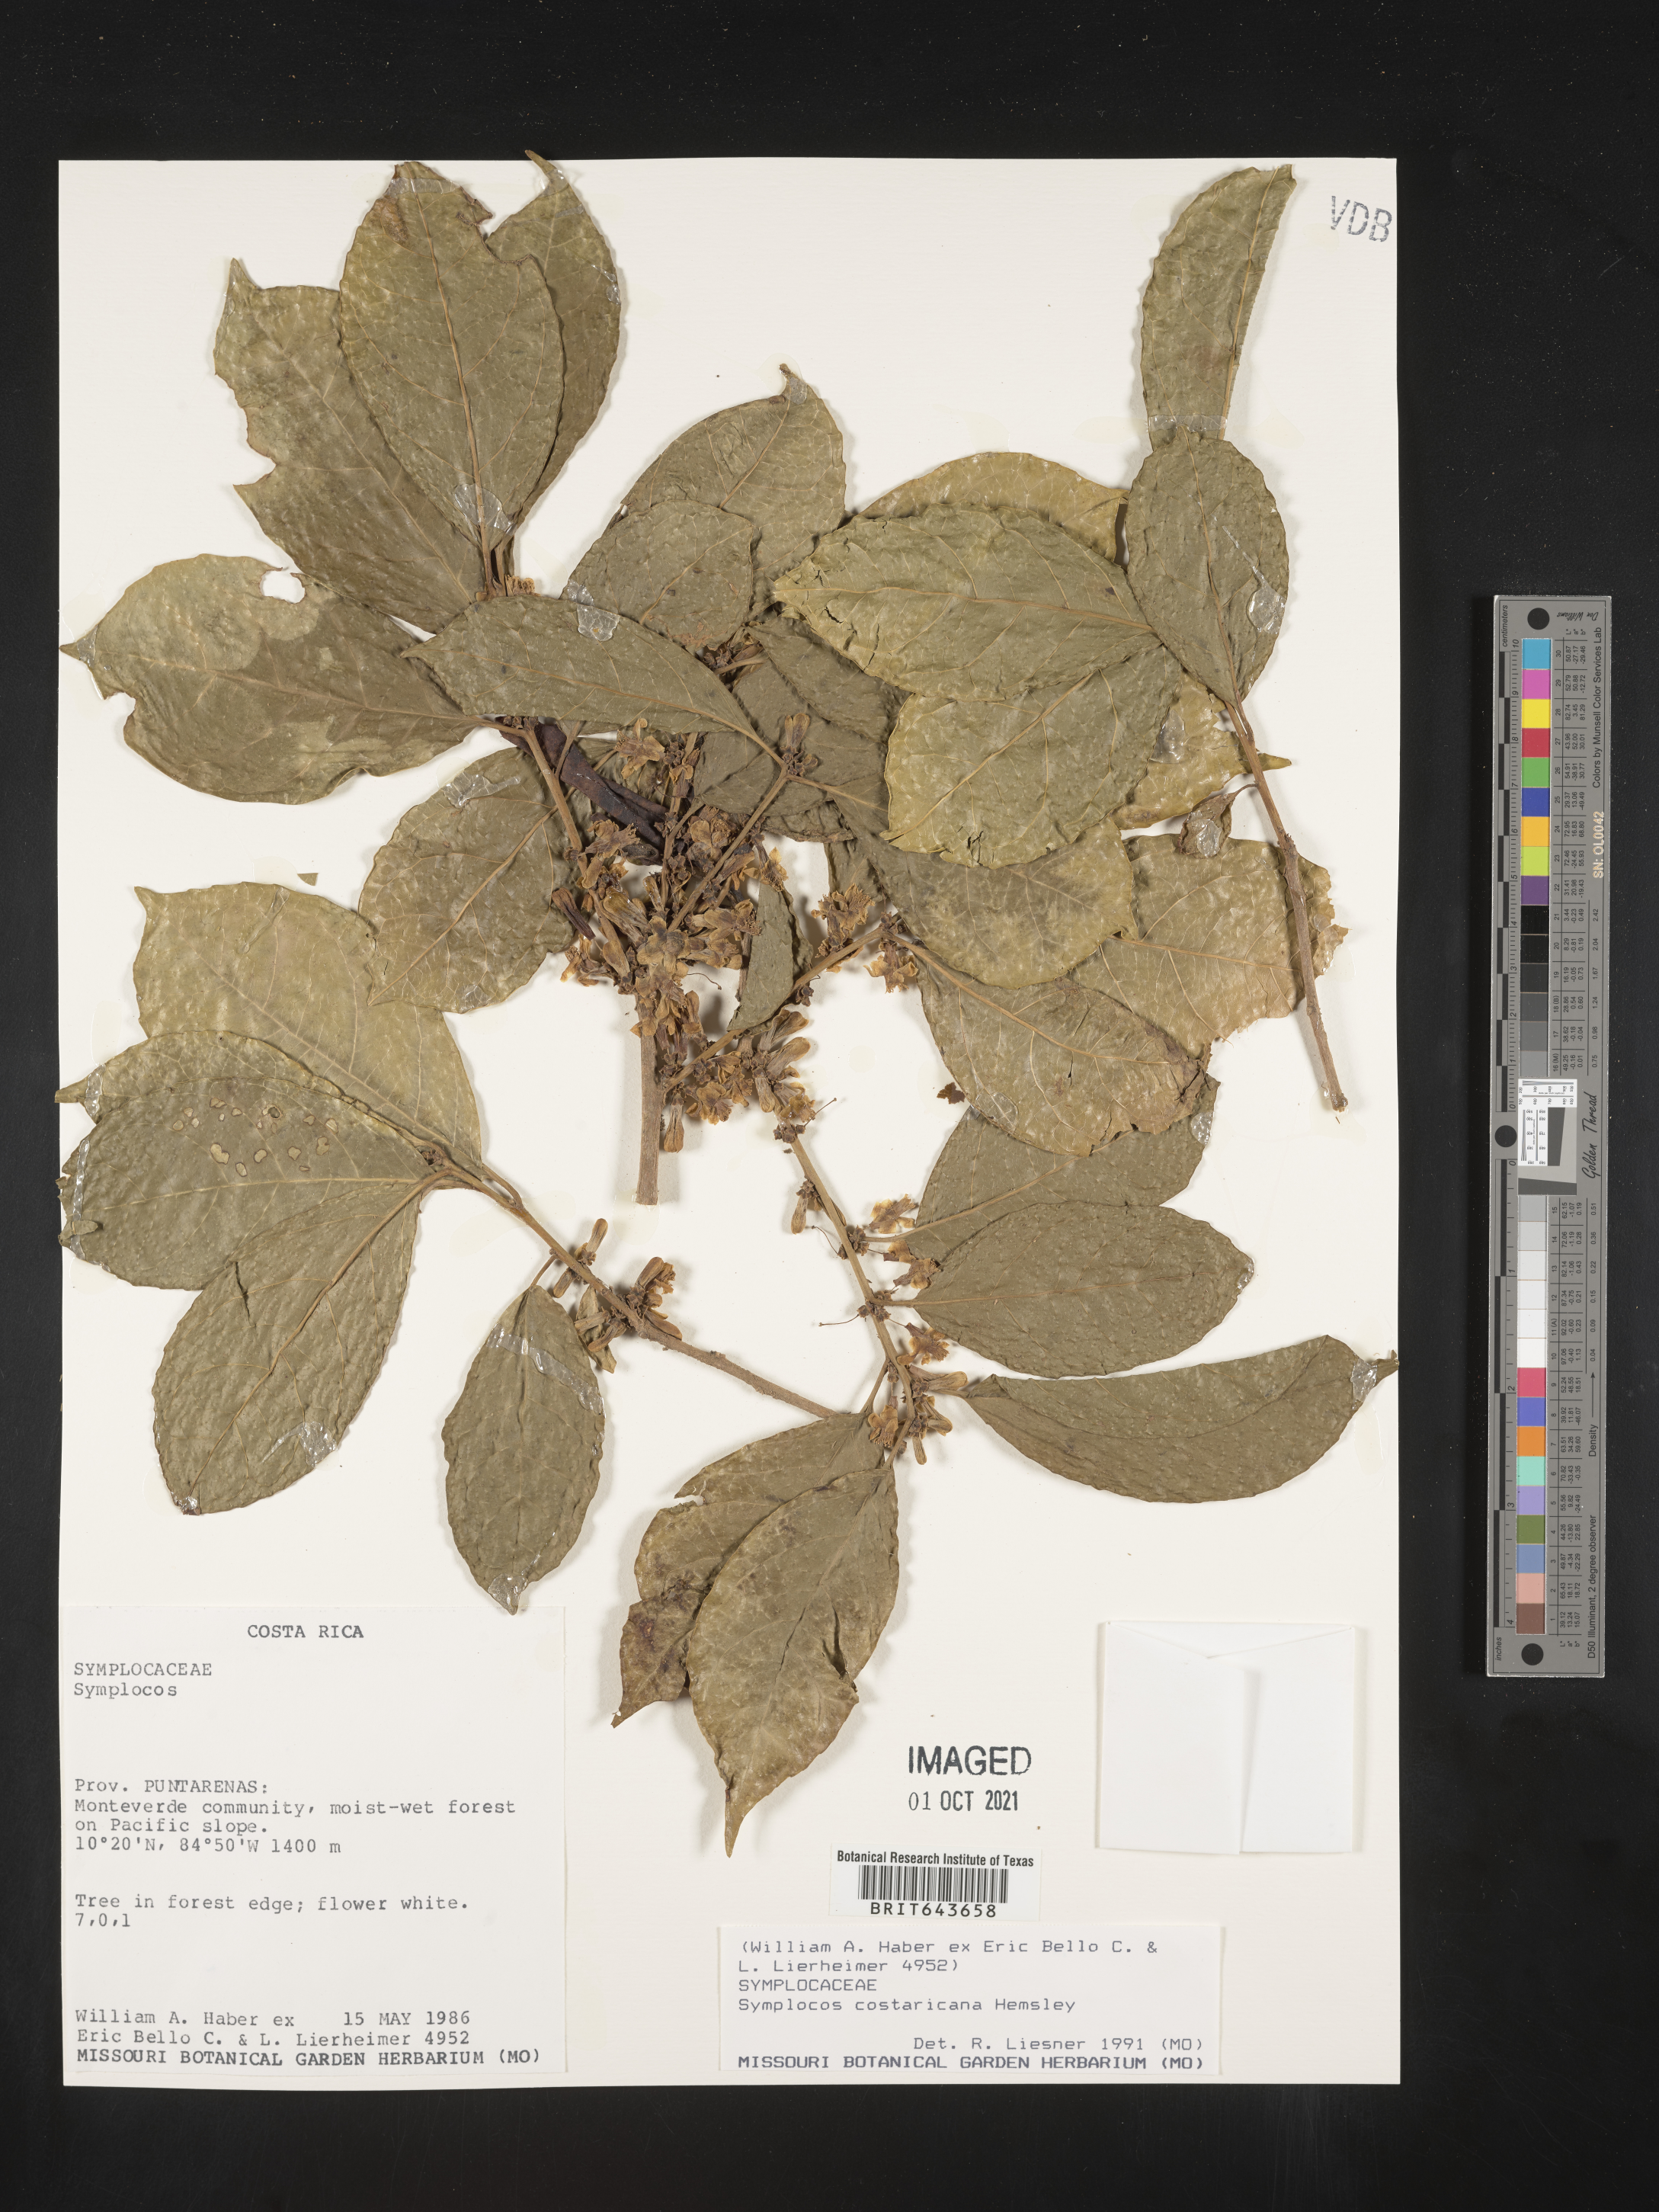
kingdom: Plantae
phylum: Tracheophyta
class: Magnoliopsida
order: Ericales
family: Symplocaceae
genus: Symplocos
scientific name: Symplocos
